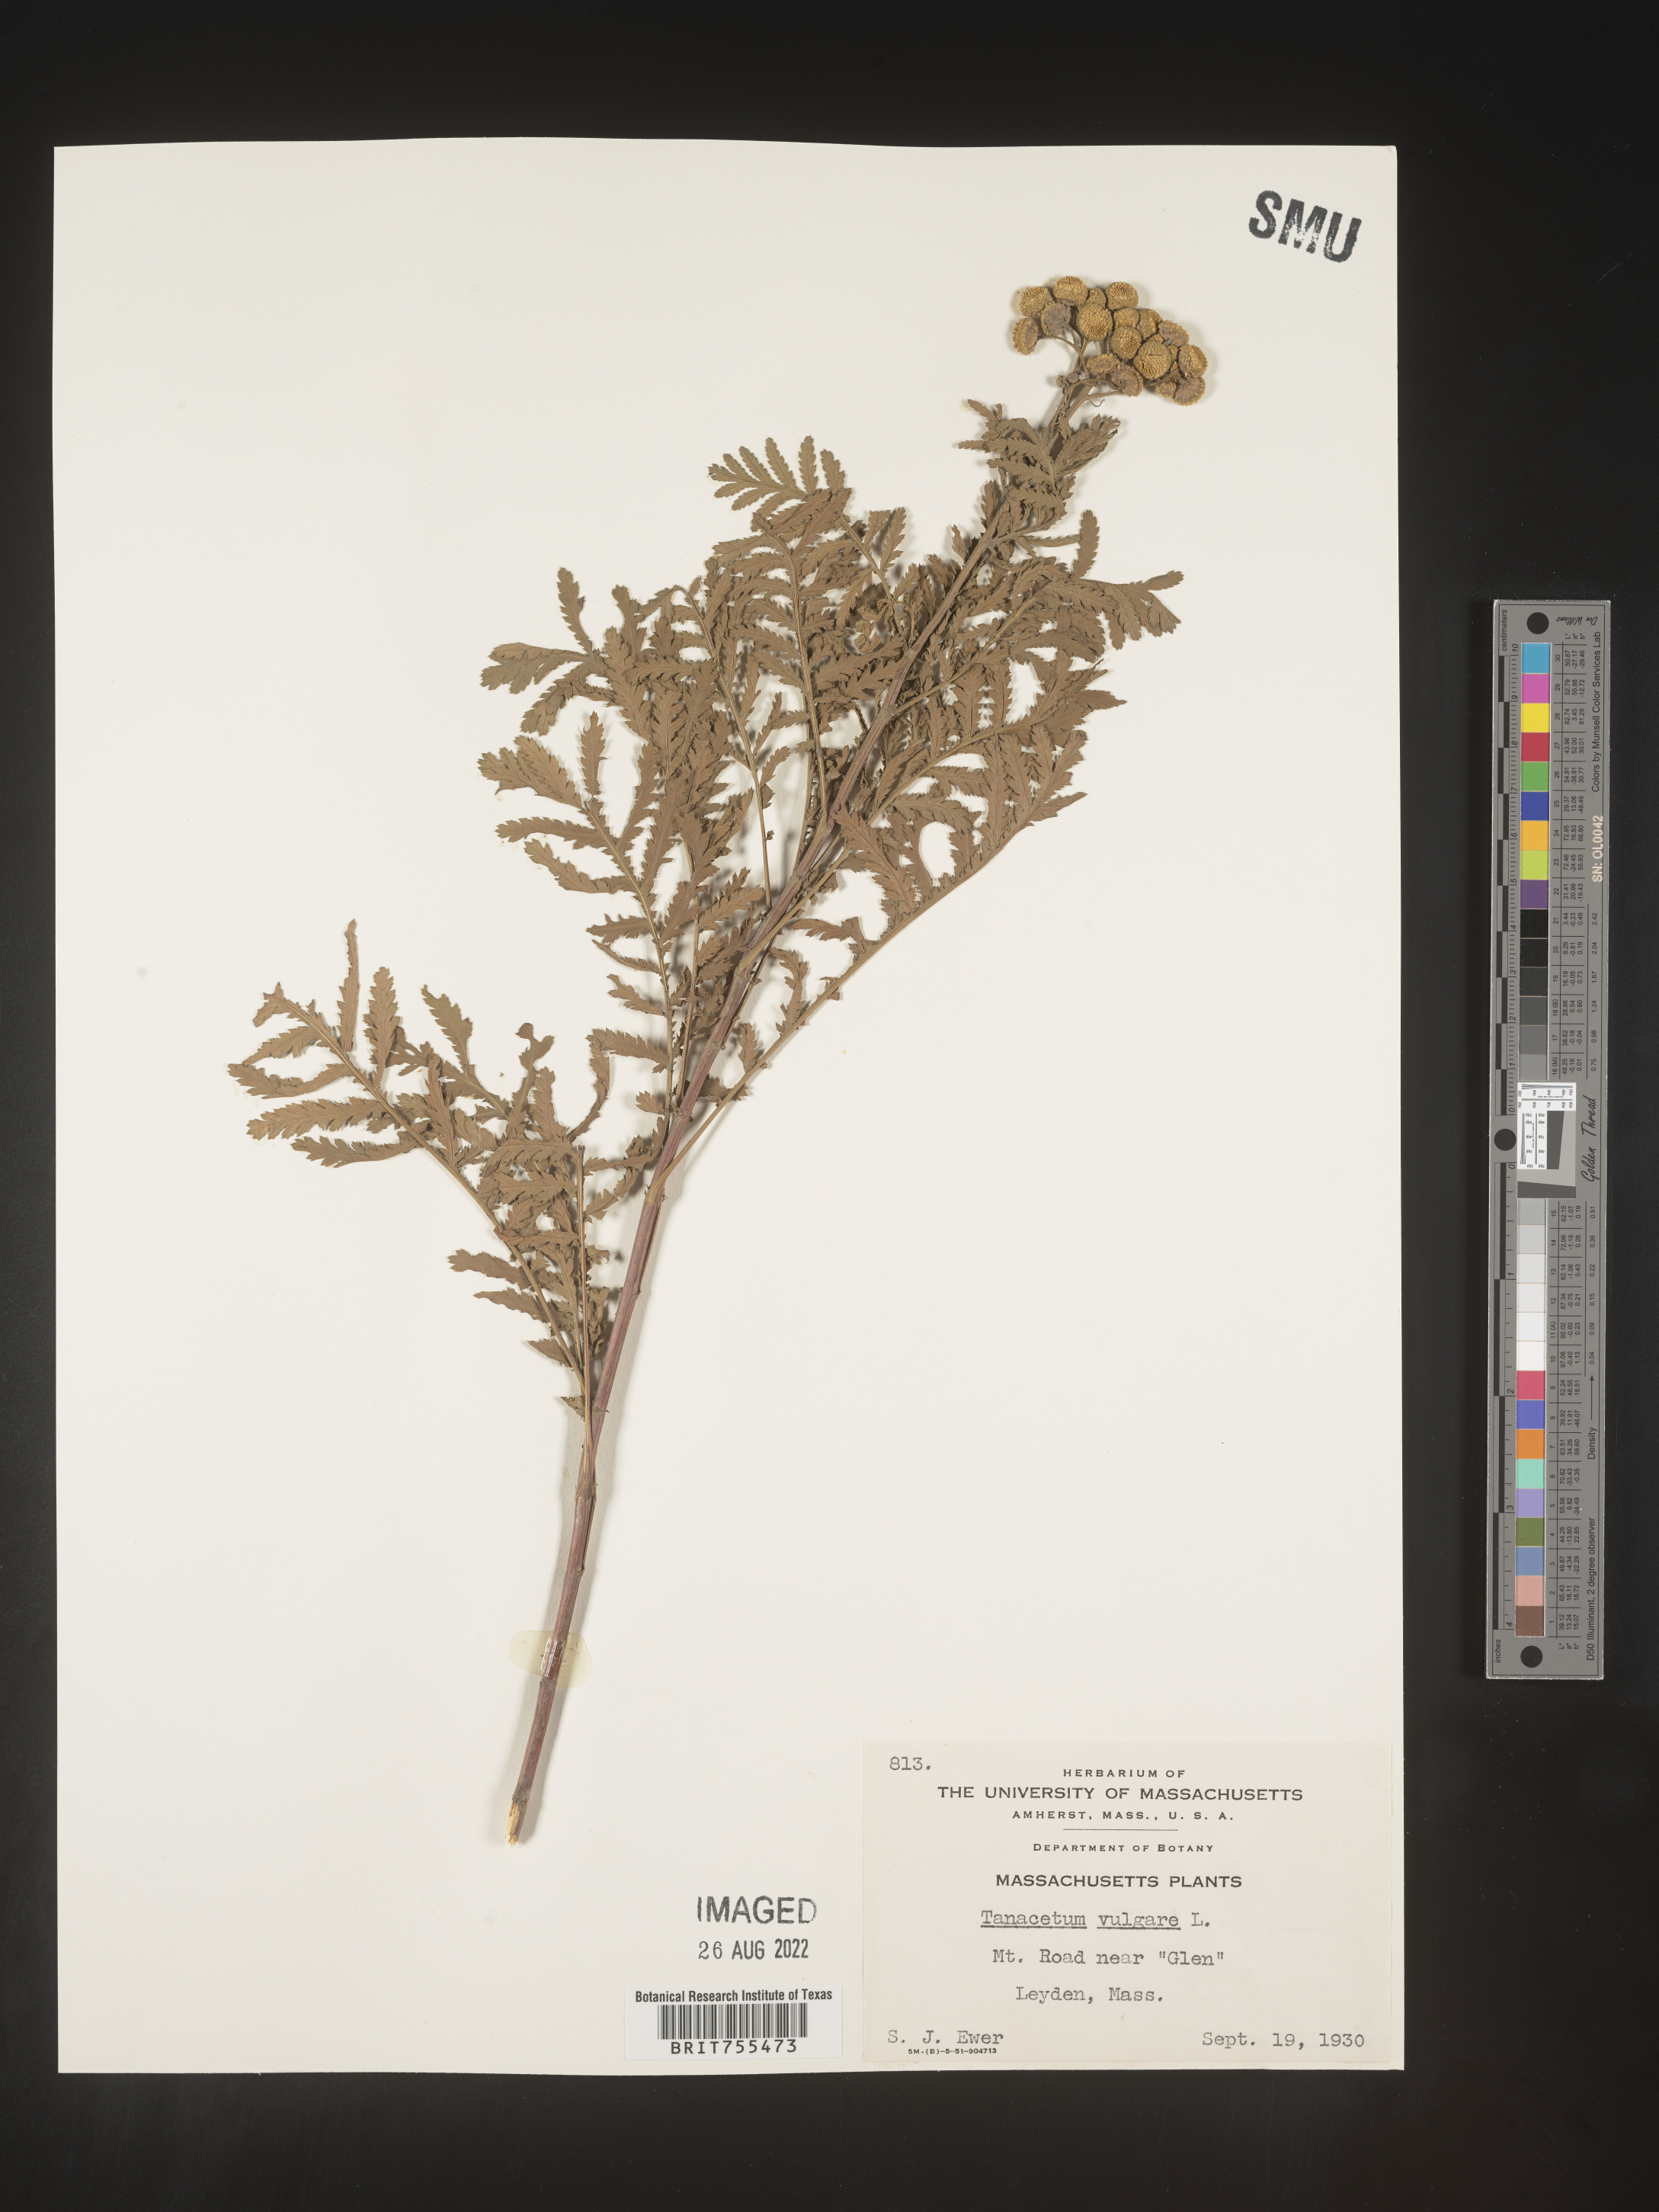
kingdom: Plantae
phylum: Tracheophyta
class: Magnoliopsida
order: Asterales
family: Asteraceae
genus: Tanacetum
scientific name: Tanacetum vulgare
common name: Common tansy
